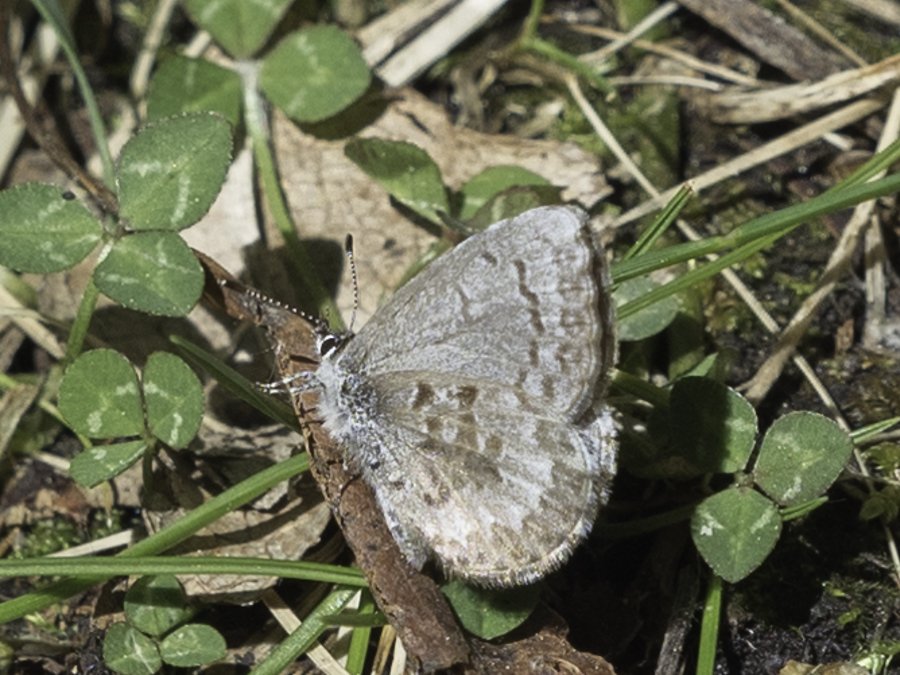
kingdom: Animalia
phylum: Arthropoda
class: Insecta
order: Lepidoptera
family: Lycaenidae
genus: Celastrina
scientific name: Celastrina lucia
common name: Northern Spring Azure
